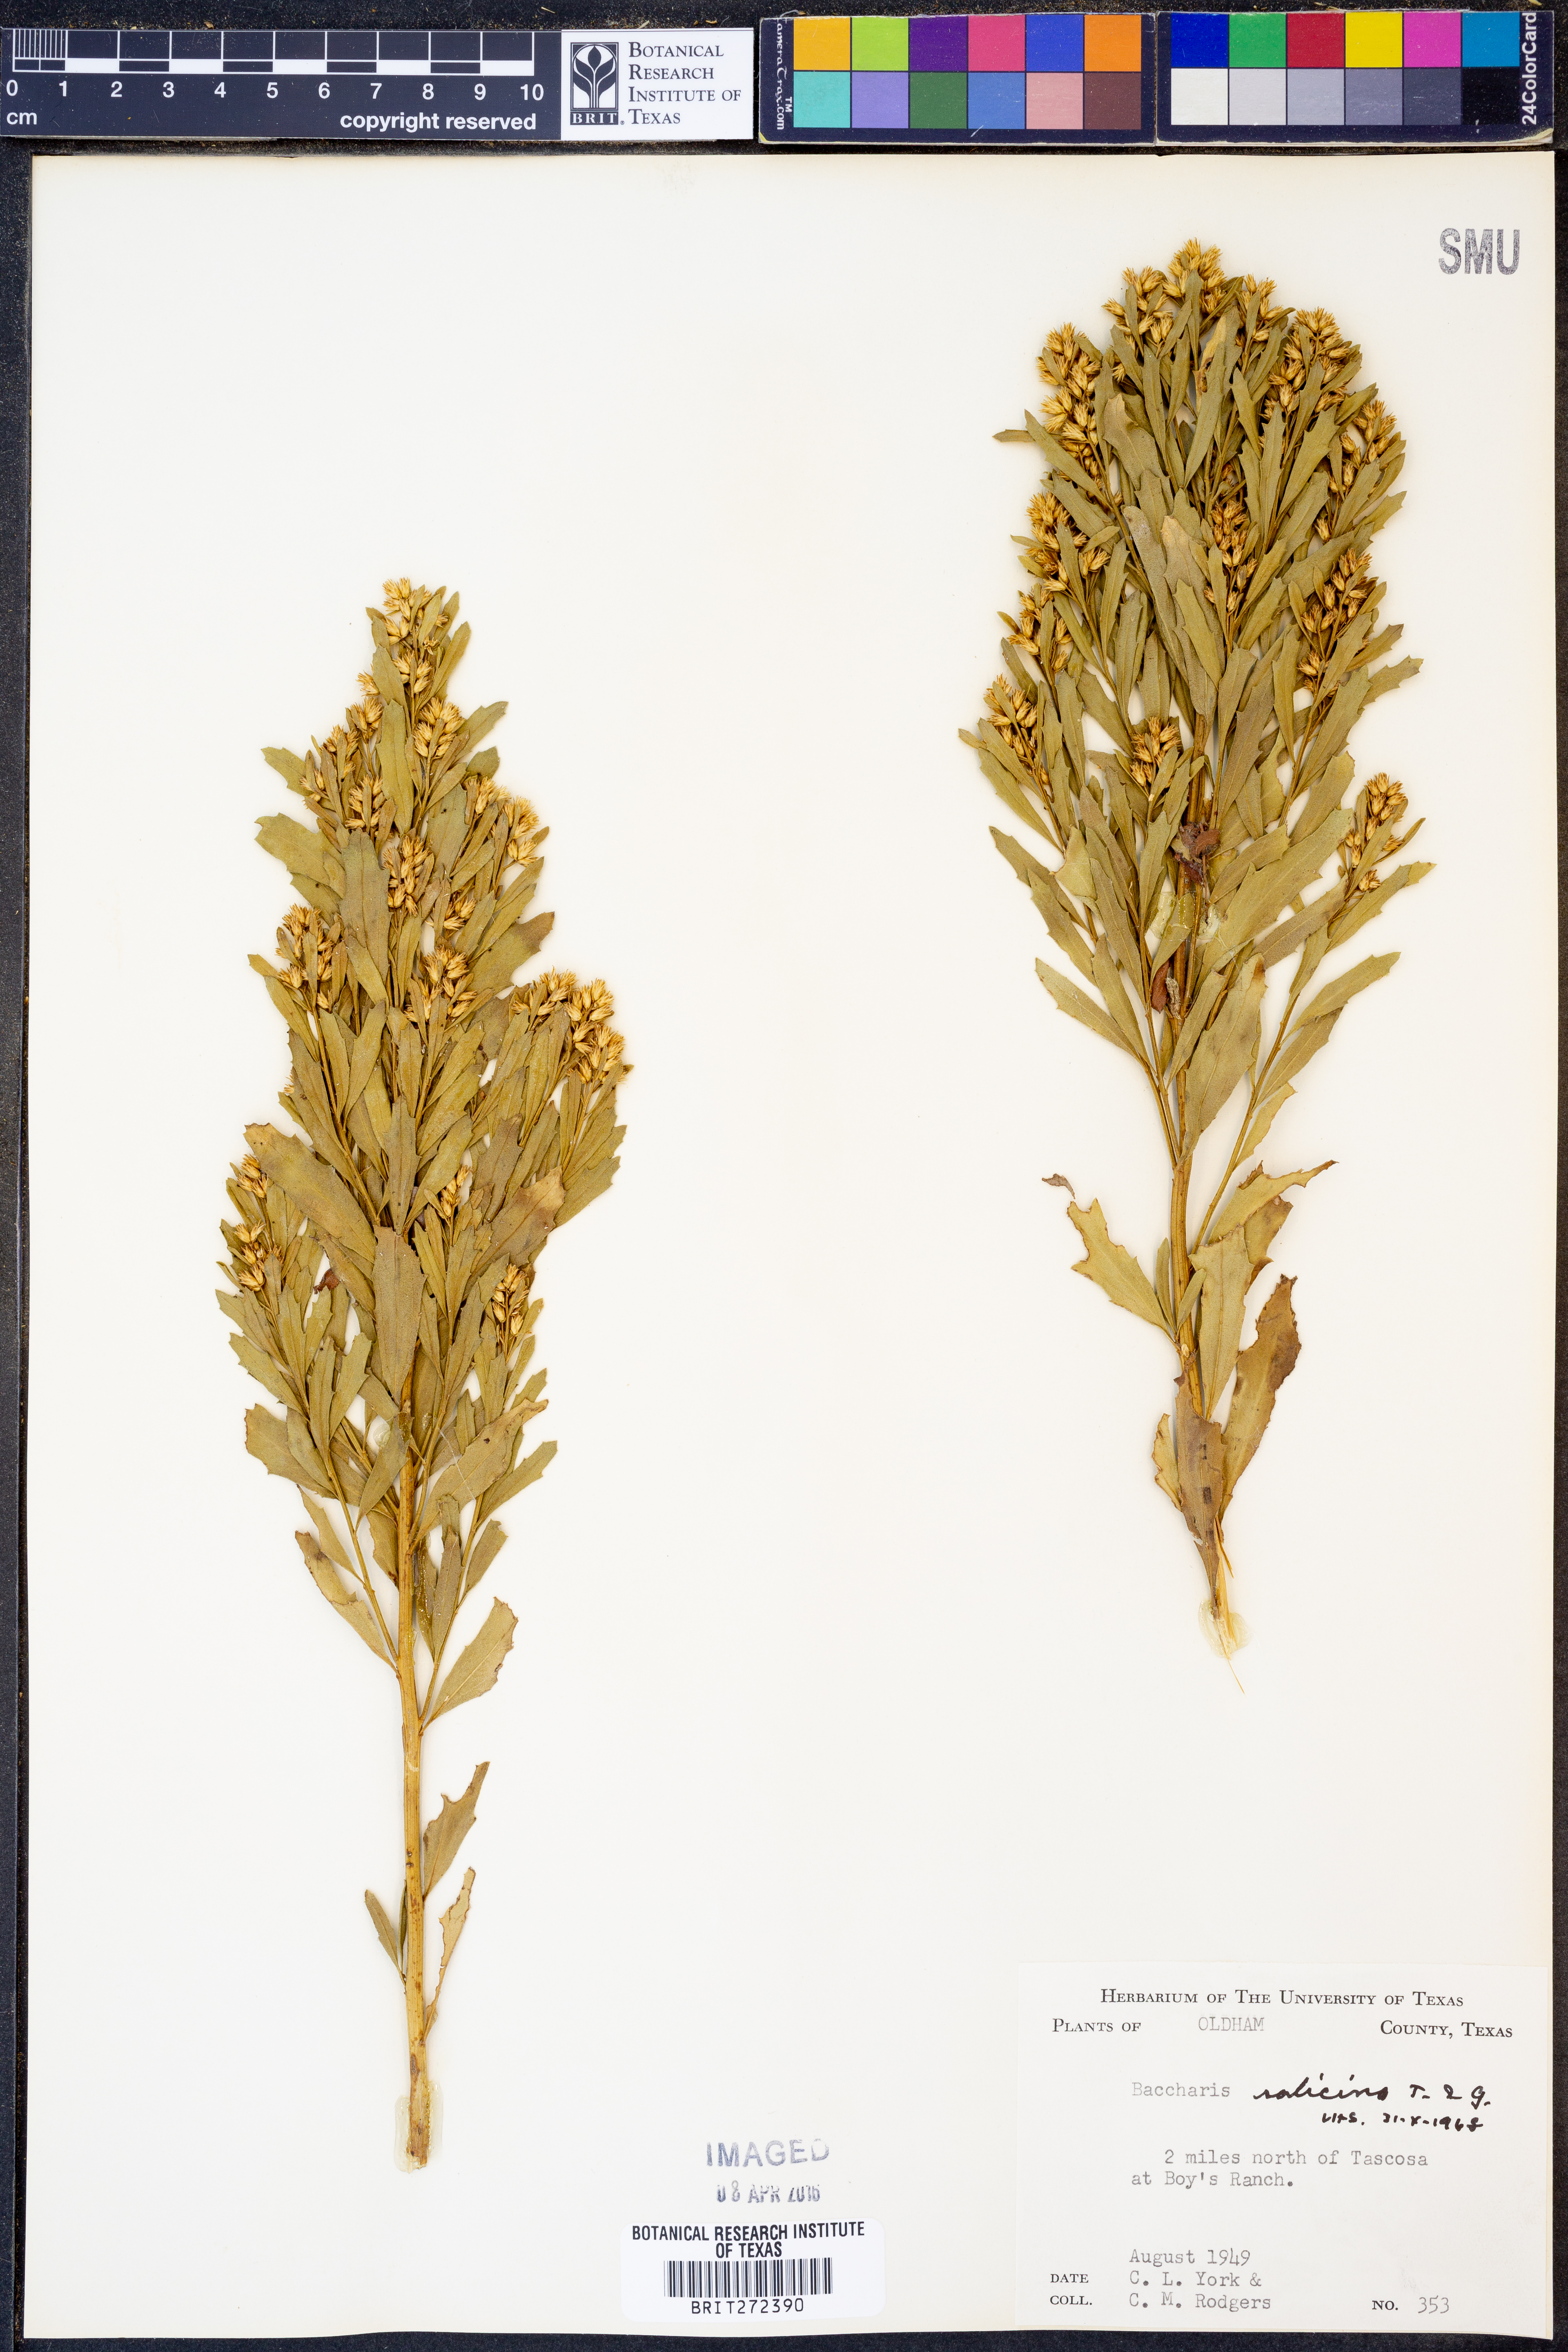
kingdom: Plantae
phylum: Tracheophyta
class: Magnoliopsida
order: Asterales
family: Asteraceae
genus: Baccharis
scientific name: Baccharis salicina
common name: Willow baccharis
